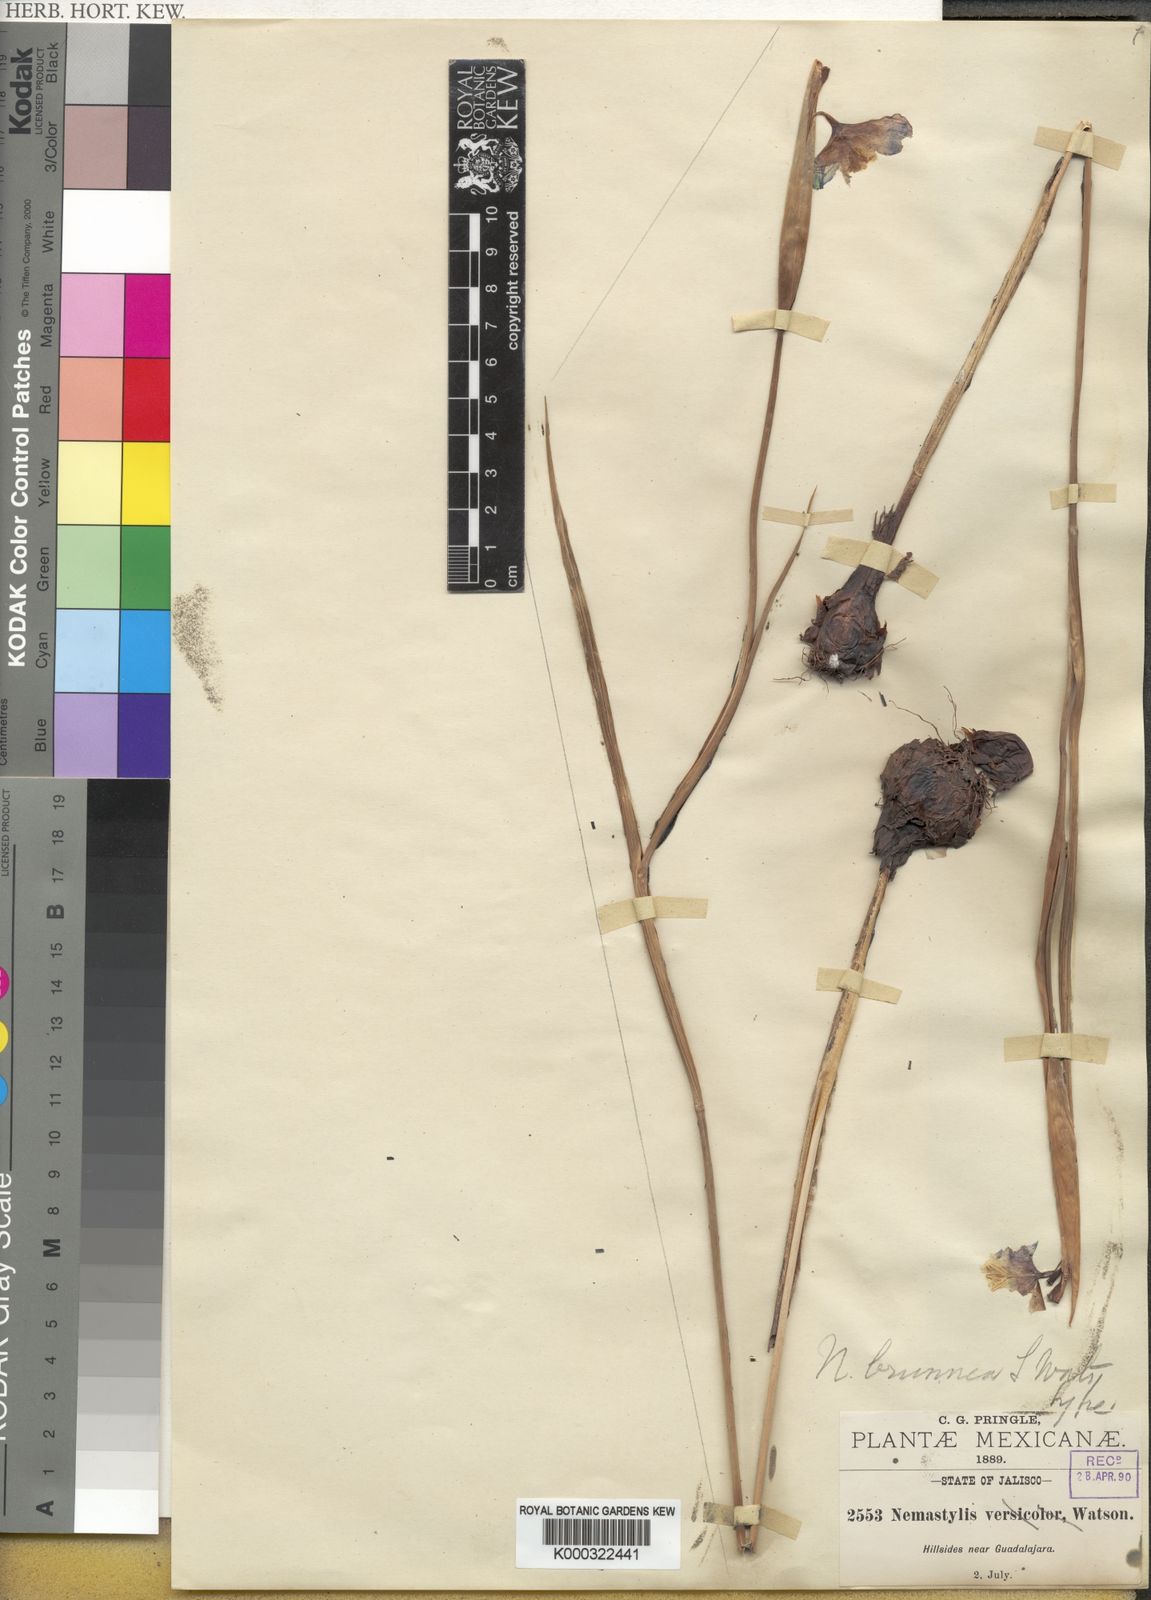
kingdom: Plantae
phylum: Tracheophyta
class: Liliopsida
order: Asparagales
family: Iridaceae
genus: Tigridia
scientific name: Tigridia meleagris
